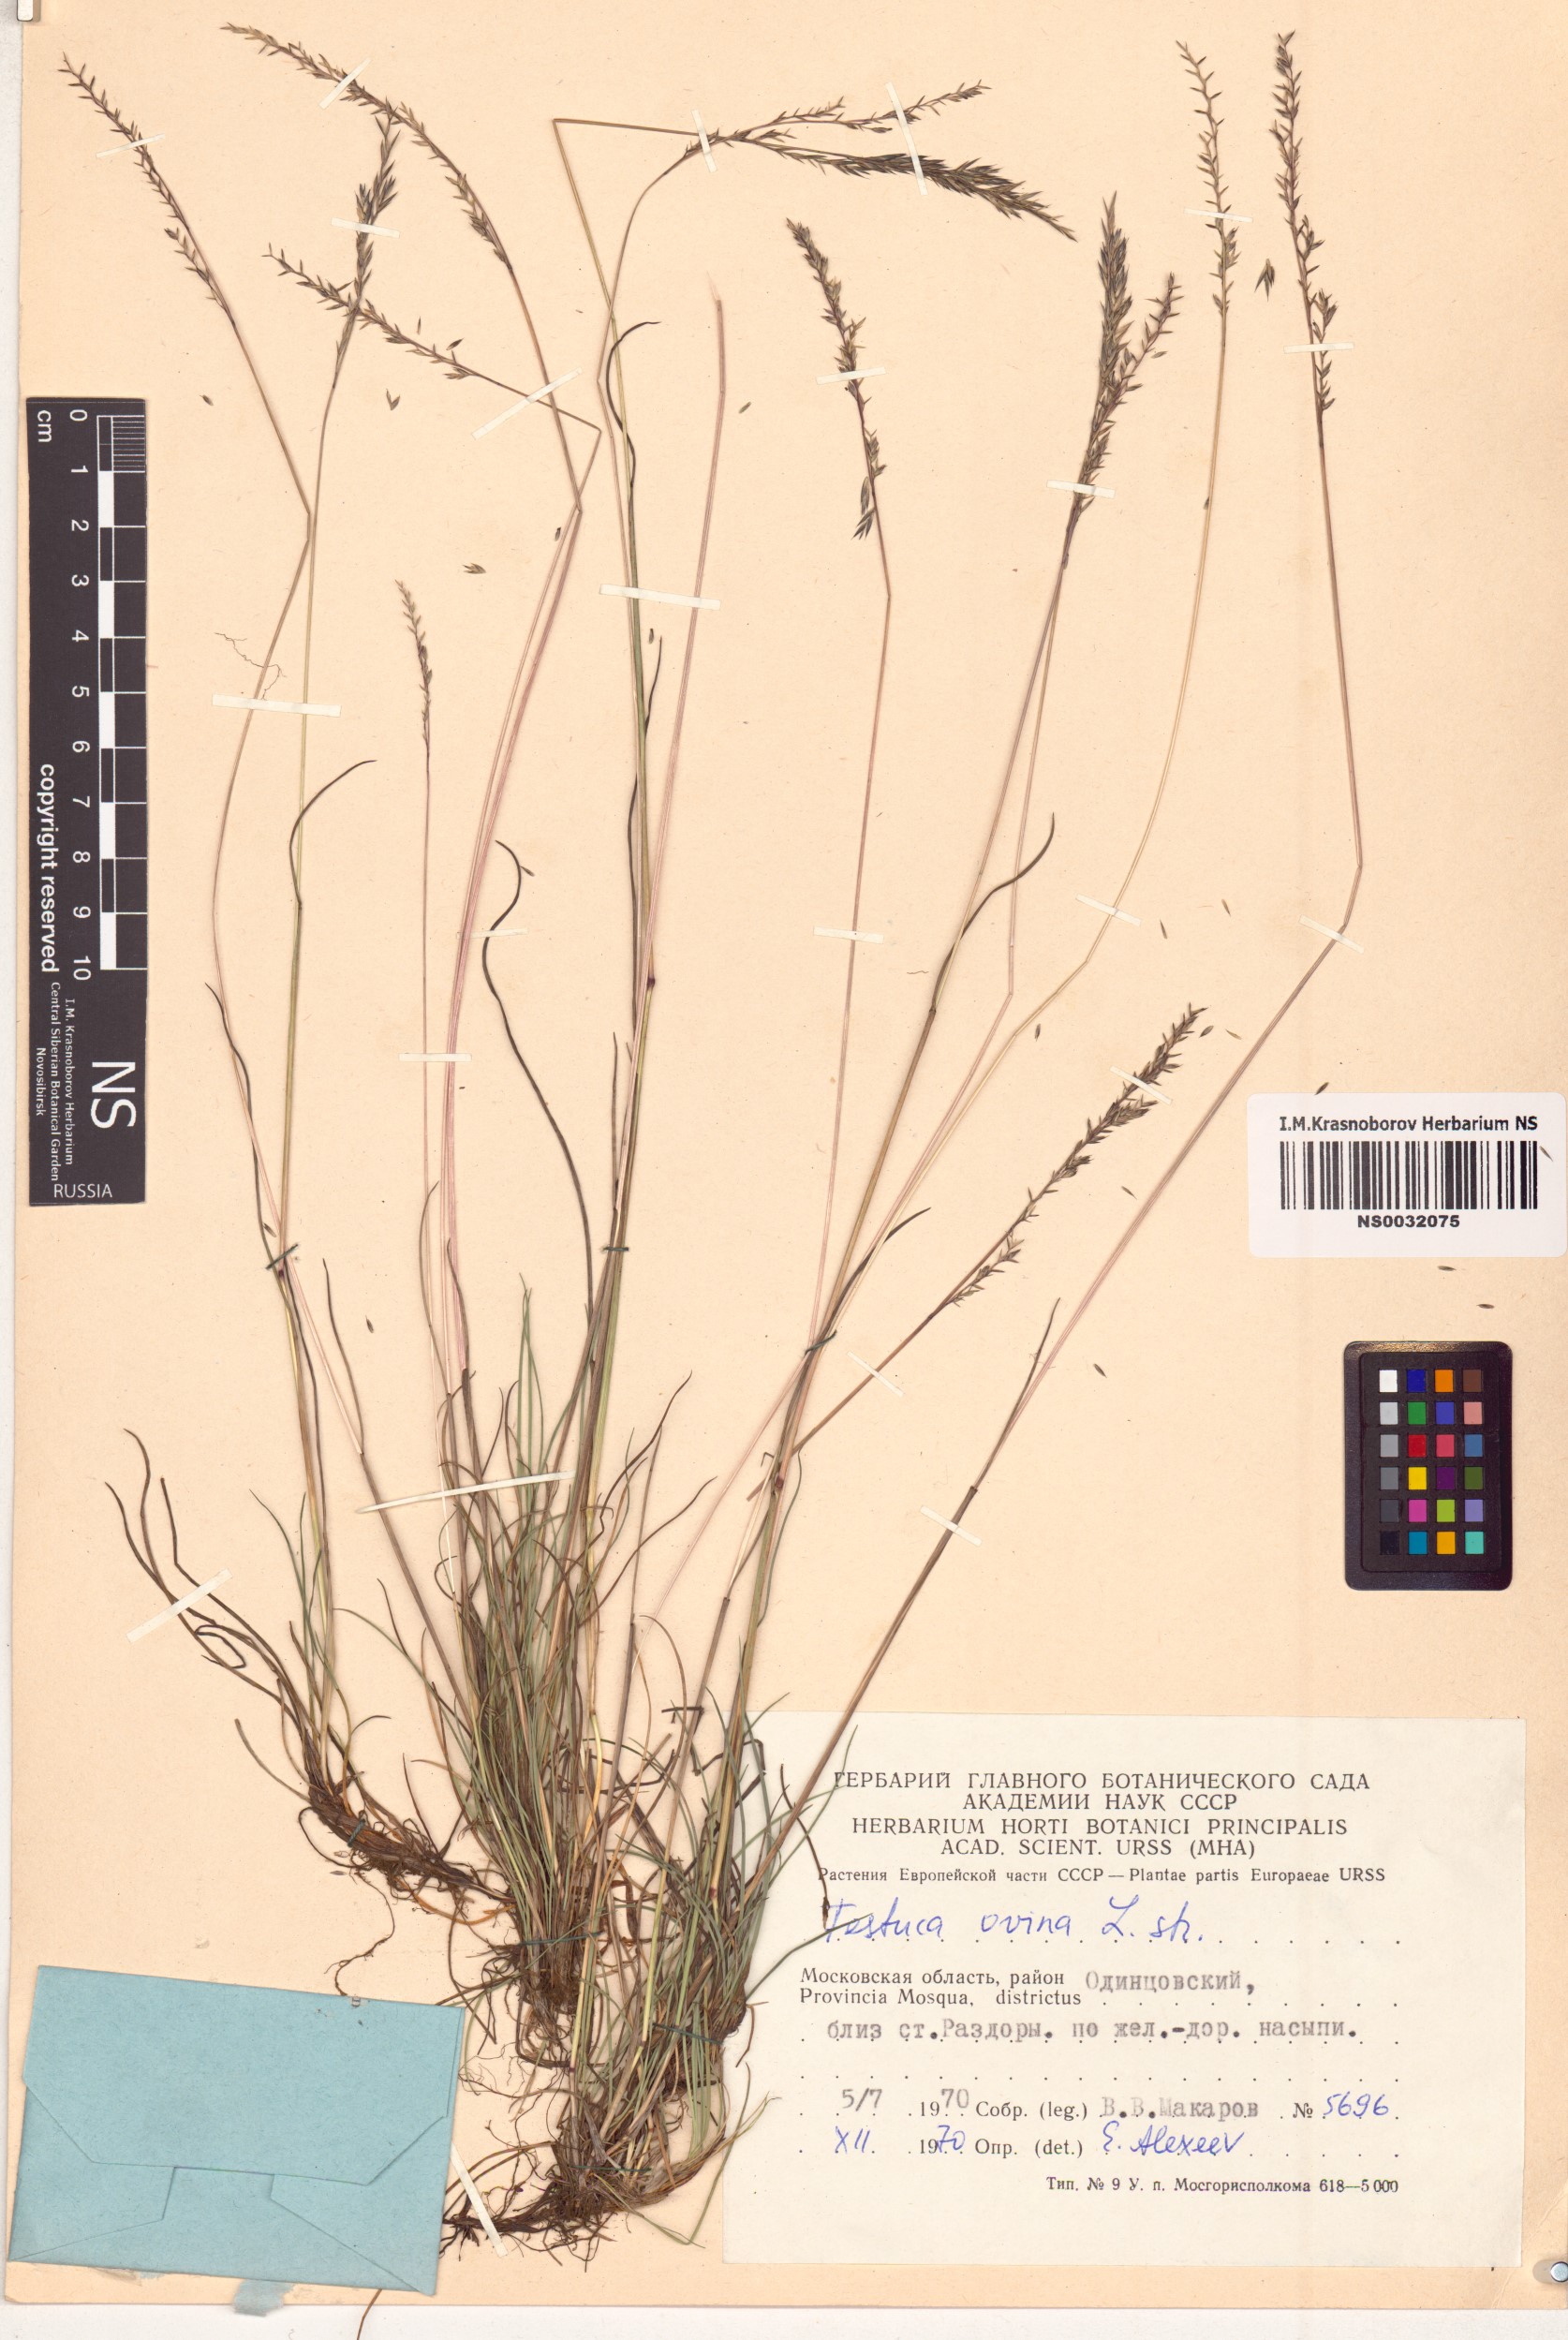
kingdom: Plantae
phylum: Tracheophyta
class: Liliopsida
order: Poales
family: Poaceae
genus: Festuca
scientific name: Festuca ovina
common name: Sheep fescue
